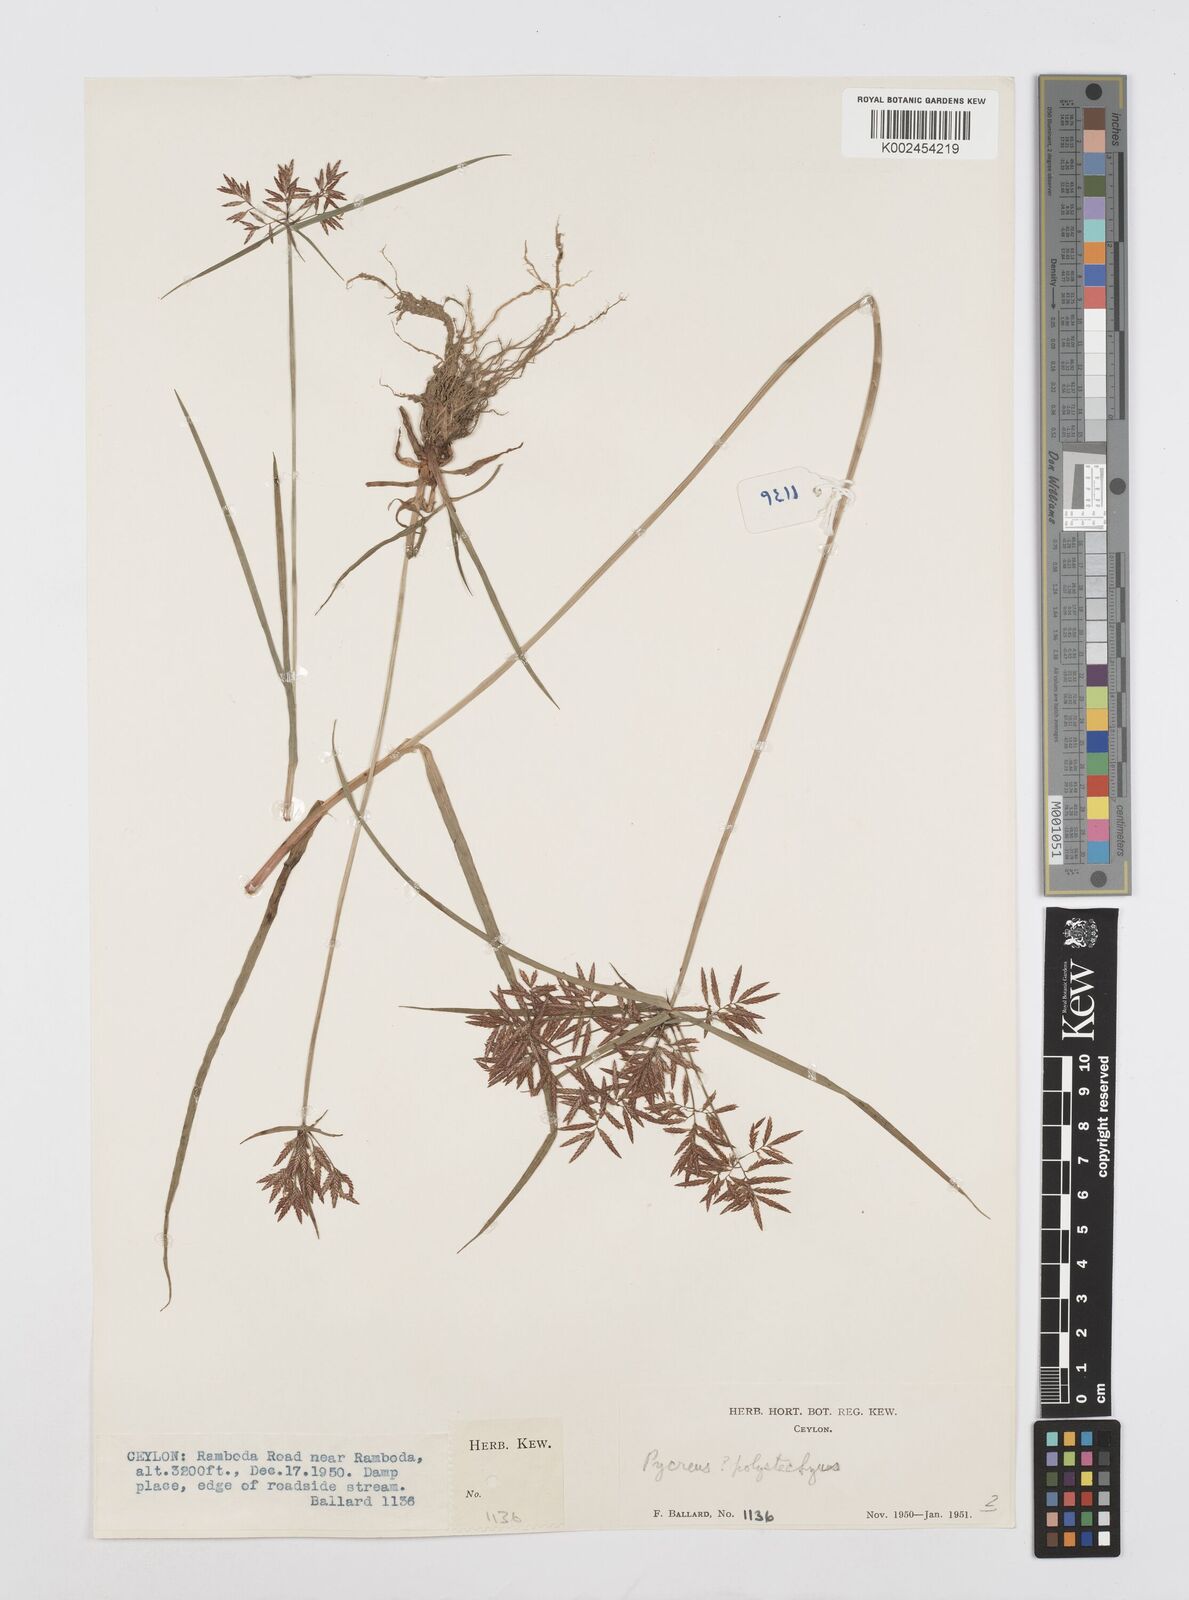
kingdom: Plantae
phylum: Tracheophyta
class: Liliopsida
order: Poales
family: Cyperaceae
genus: Cyperus
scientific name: Cyperus polystachyos
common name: Bunchy flat sedge
